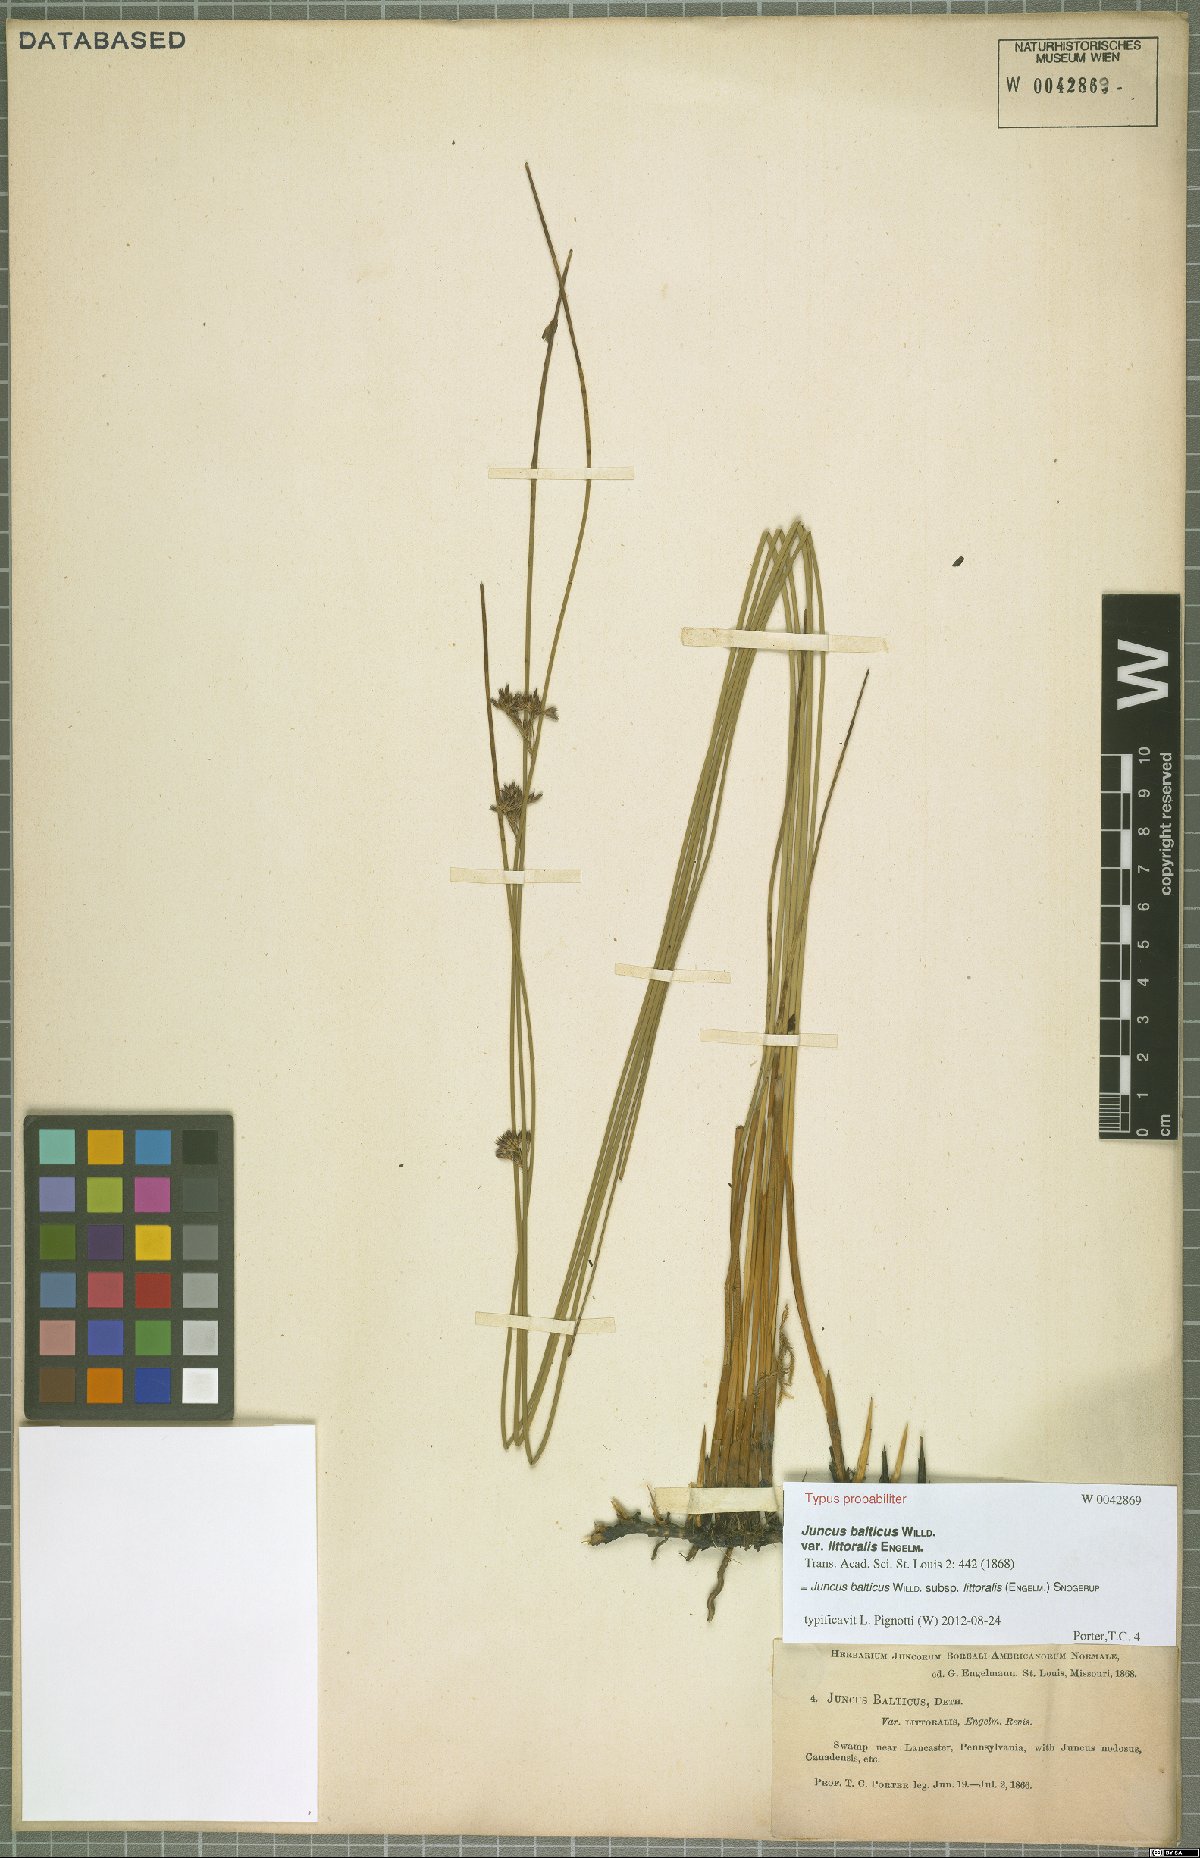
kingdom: Plantae
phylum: Tracheophyta
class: Liliopsida
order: Poales
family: Juncaceae
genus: Juncus
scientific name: Juncus balticus
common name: Baltic rush
